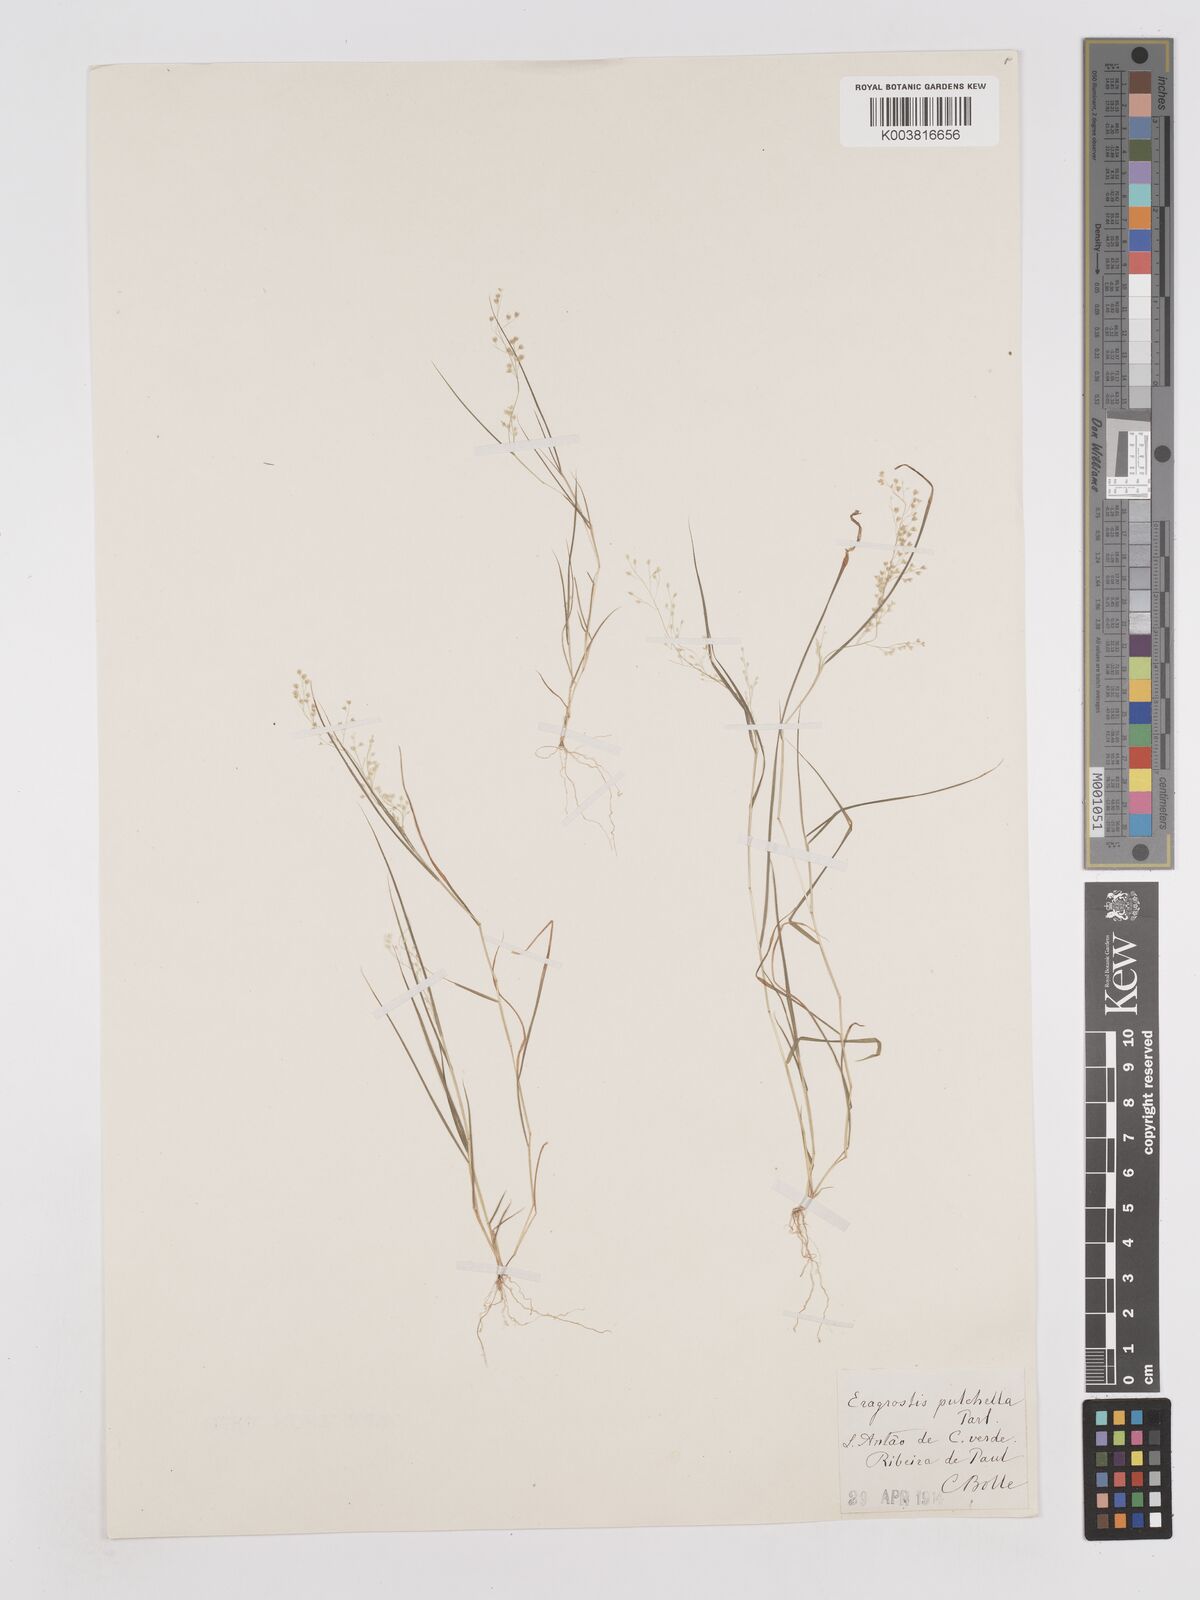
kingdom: Plantae
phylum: Tracheophyta
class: Liliopsida
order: Poales
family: Poaceae
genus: Eragrostis
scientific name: Eragrostis tenella
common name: Japanese lovegrass
